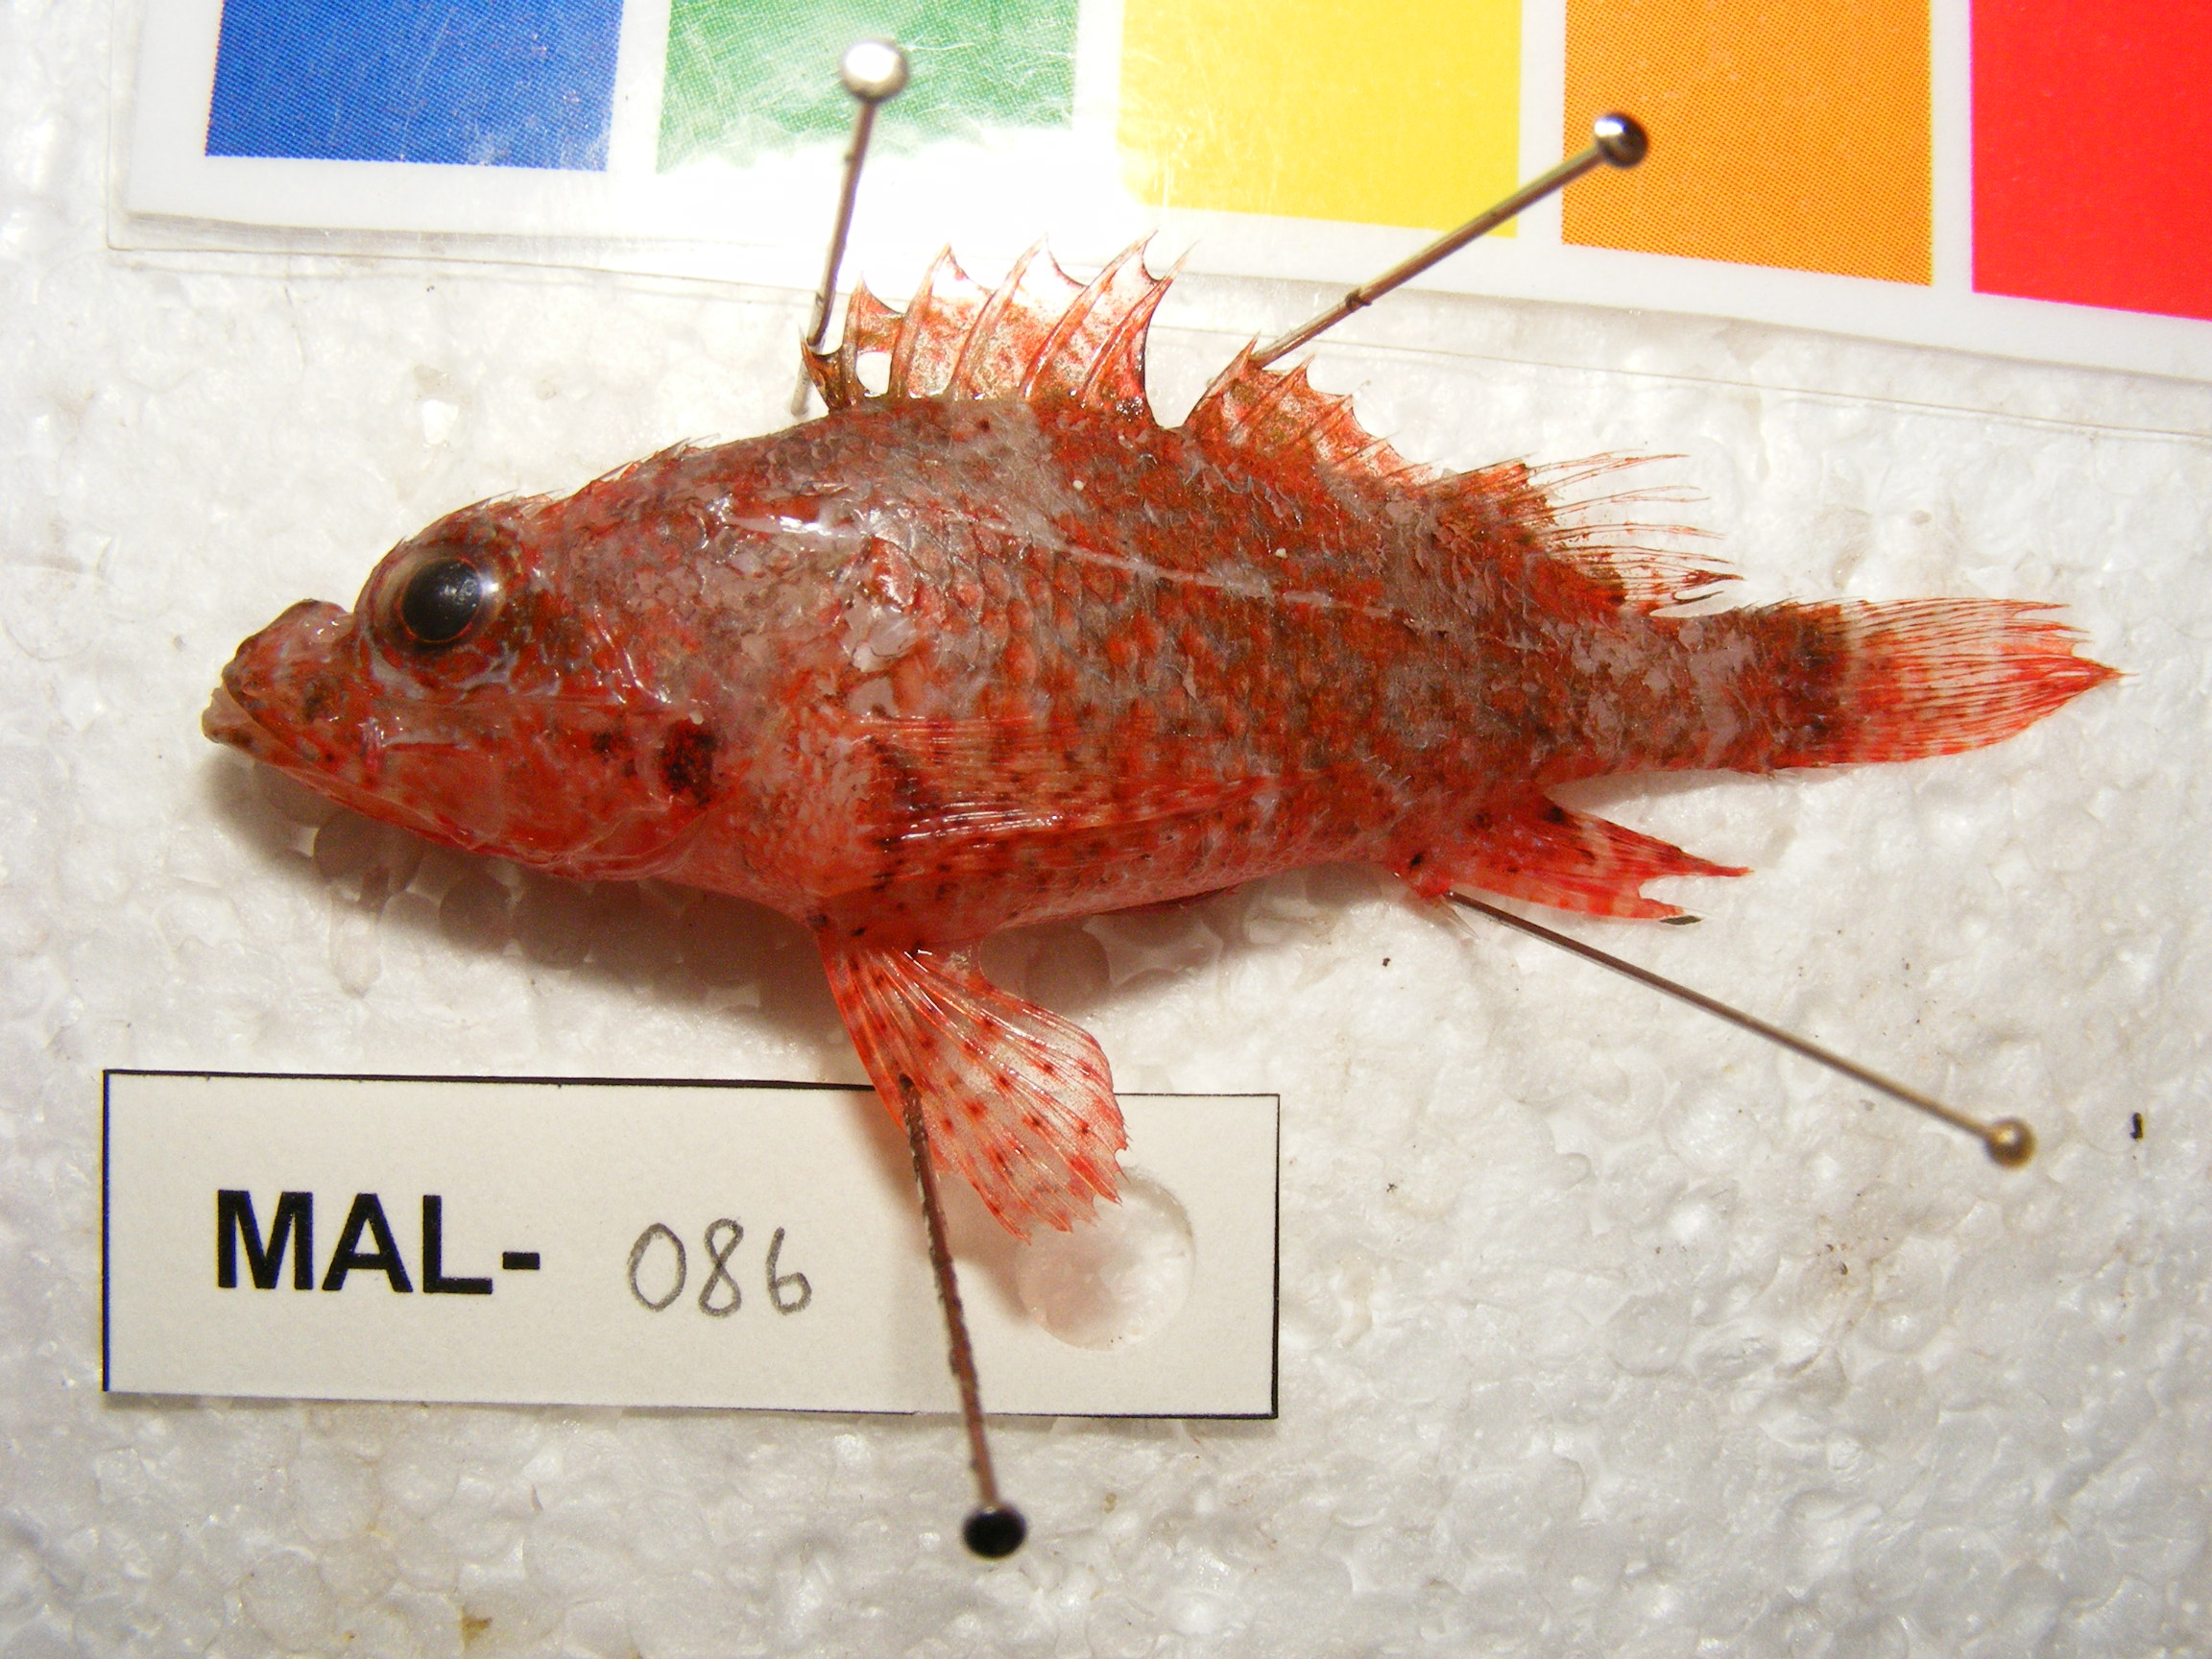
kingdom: Animalia
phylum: Chordata
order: Scorpaeniformes
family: Scorpaenidae
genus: Scorpaenodes
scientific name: Scorpaenodes albaiensis
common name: Longfingered scorpionfish
